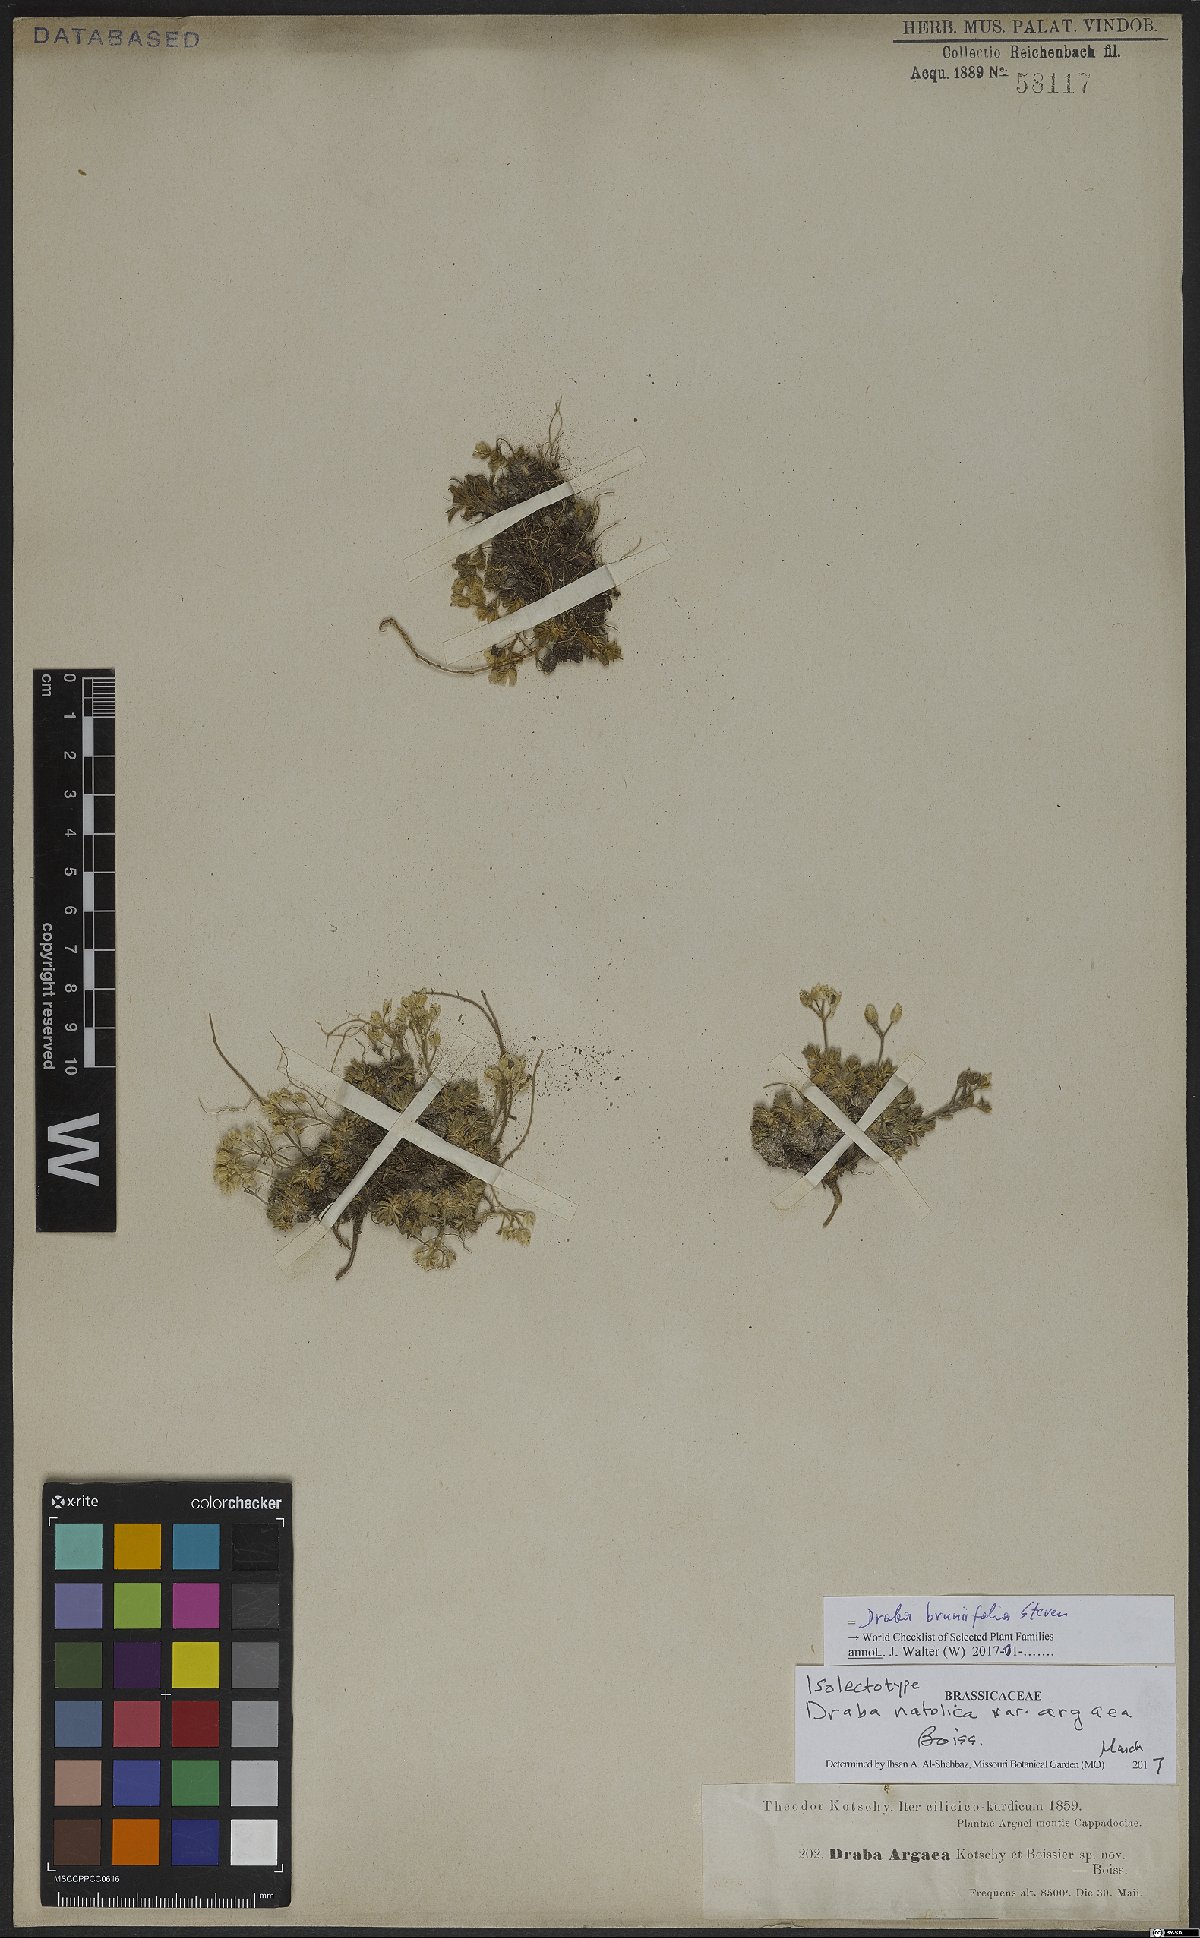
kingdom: Plantae
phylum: Tracheophyta
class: Magnoliopsida
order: Brassicales
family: Brassicaceae
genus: Draba
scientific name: Draba bruniifolia
